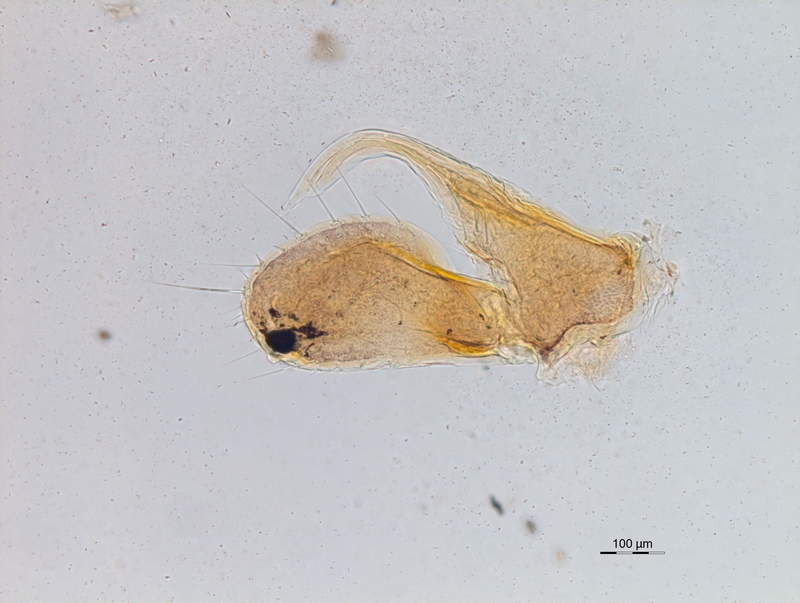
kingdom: Animalia
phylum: Arthropoda
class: Diplopoda
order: Chordeumatida
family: Chordeumatidae
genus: Mycogona
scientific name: Mycogona germanica
